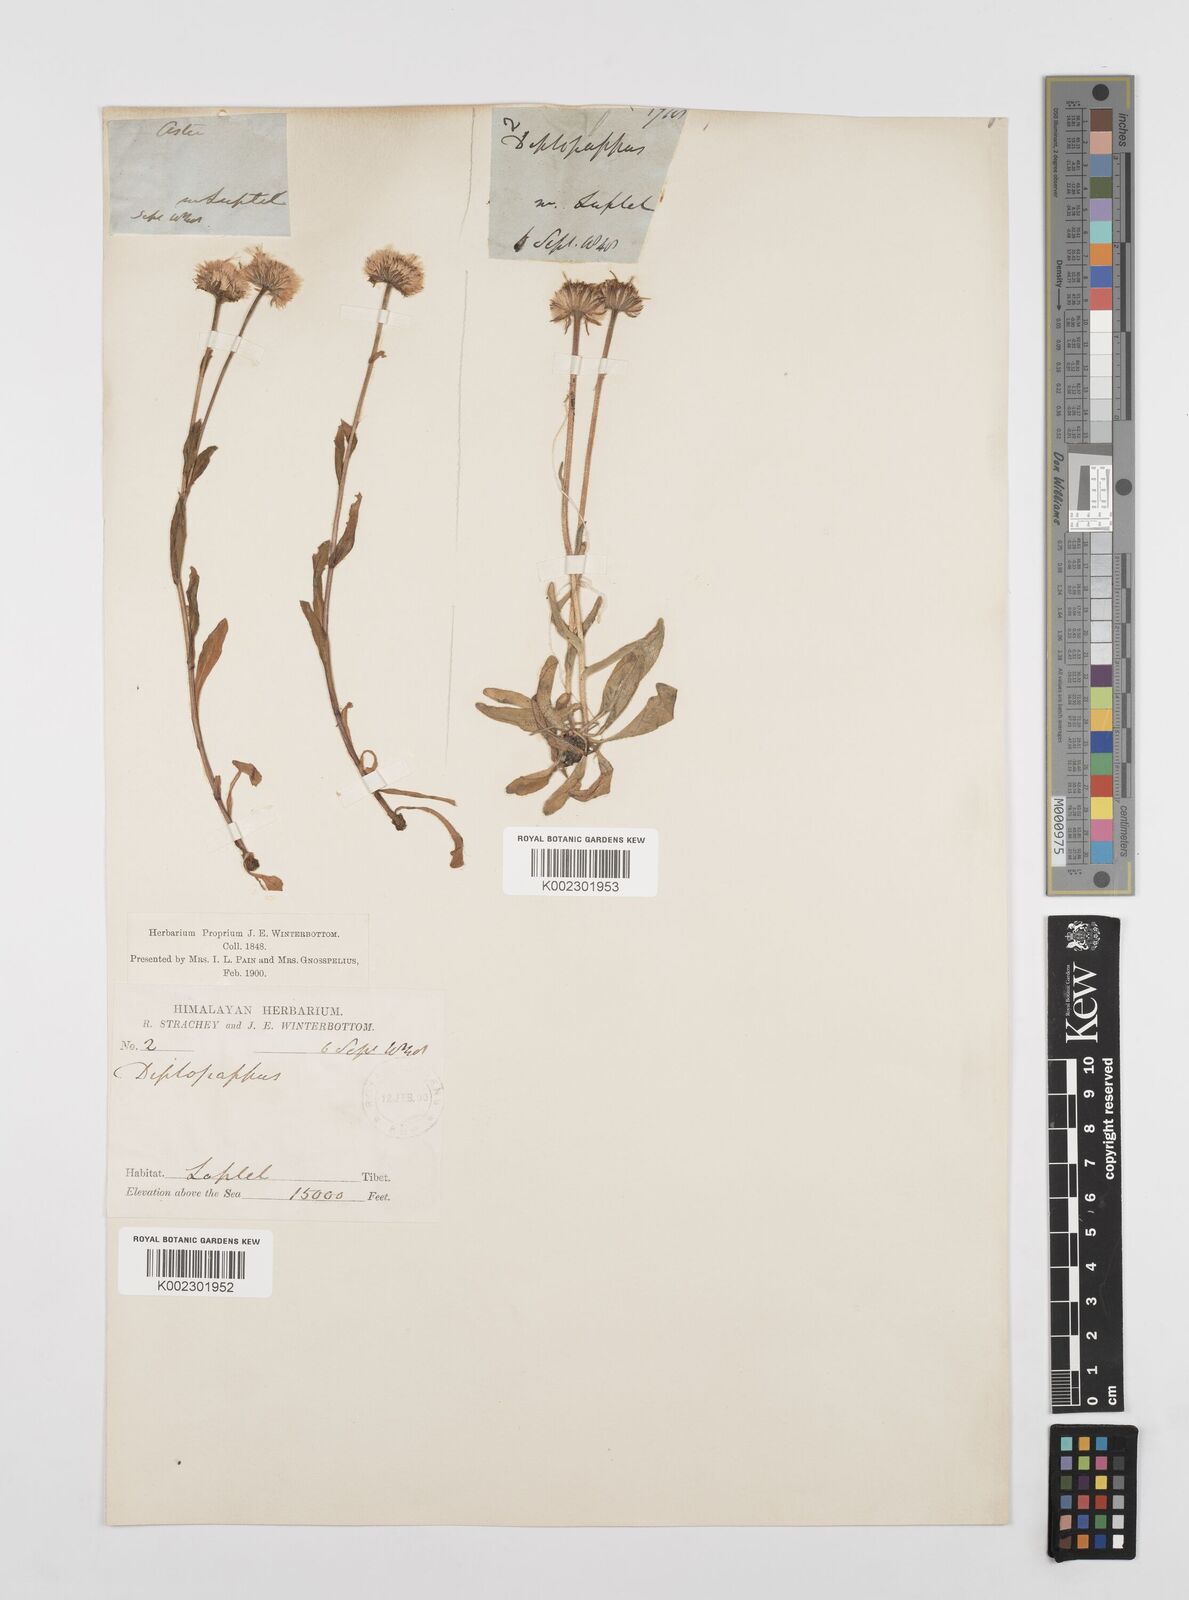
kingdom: Plantae
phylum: Tracheophyta
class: Magnoliopsida
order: Asterales
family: Asteraceae
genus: Erigeron
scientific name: Erigeron alpinus
